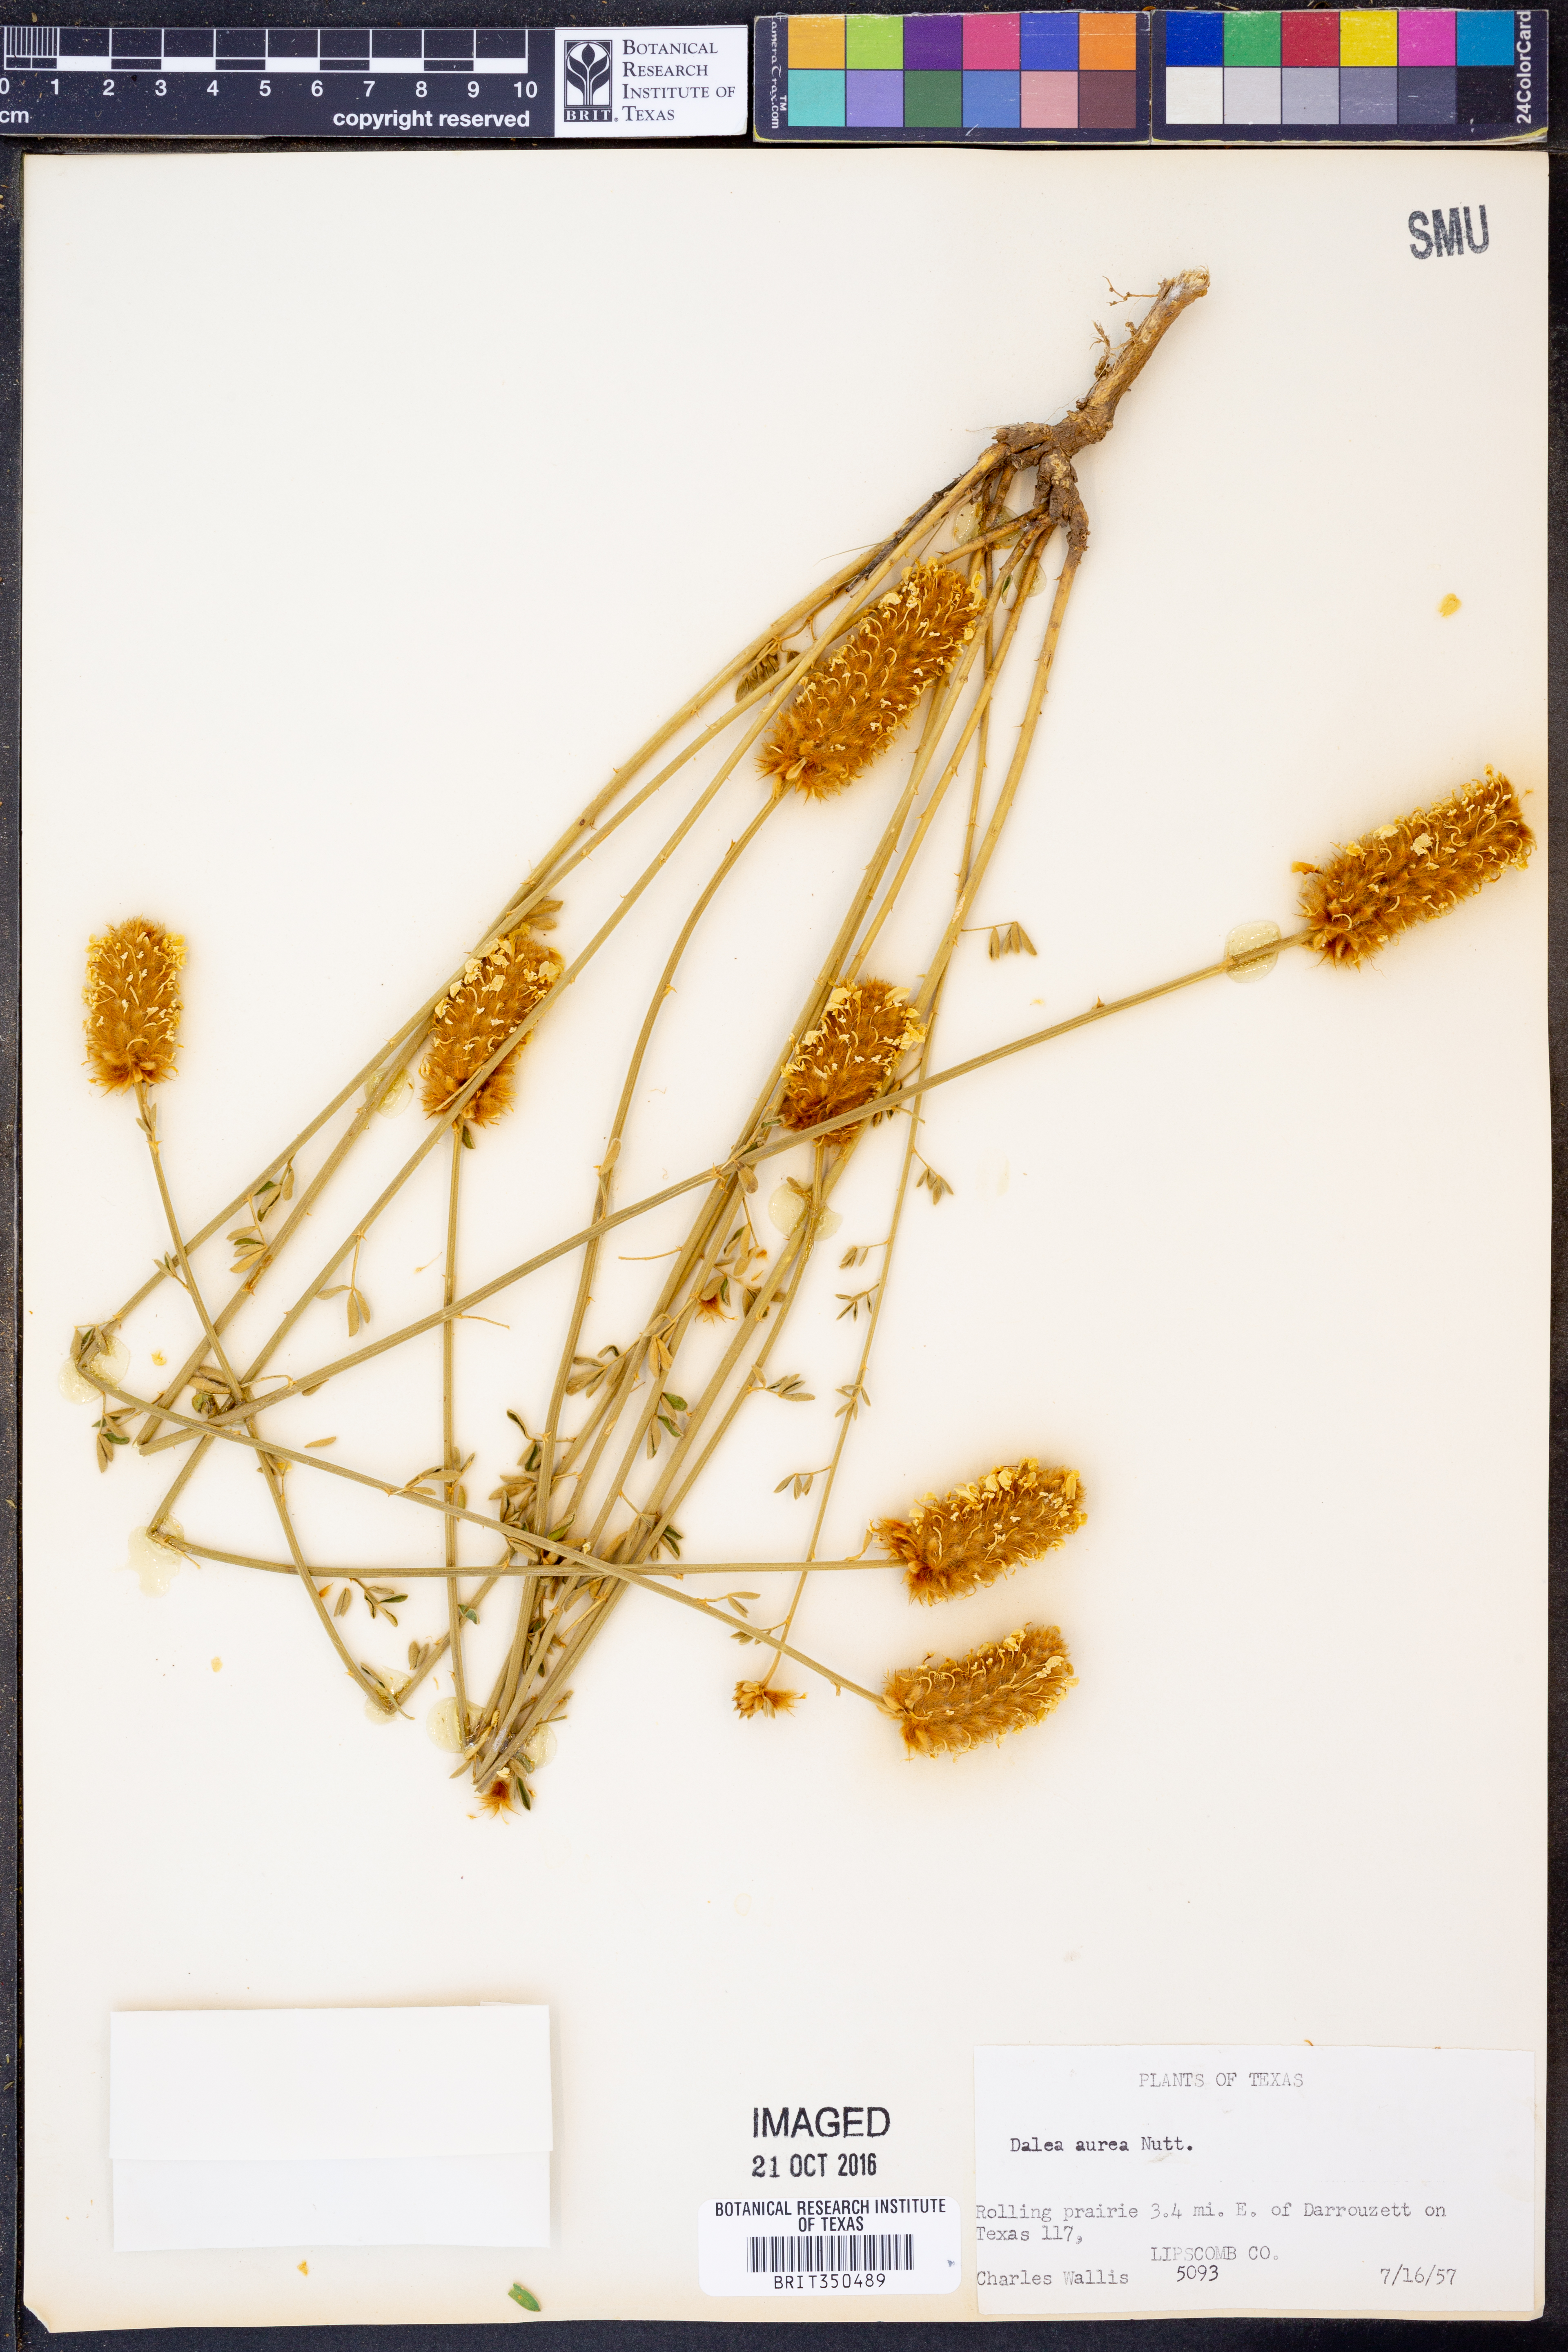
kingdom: Plantae
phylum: Tracheophyta
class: Magnoliopsida
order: Fabales
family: Fabaceae
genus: Dalea
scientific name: Dalea aurea
